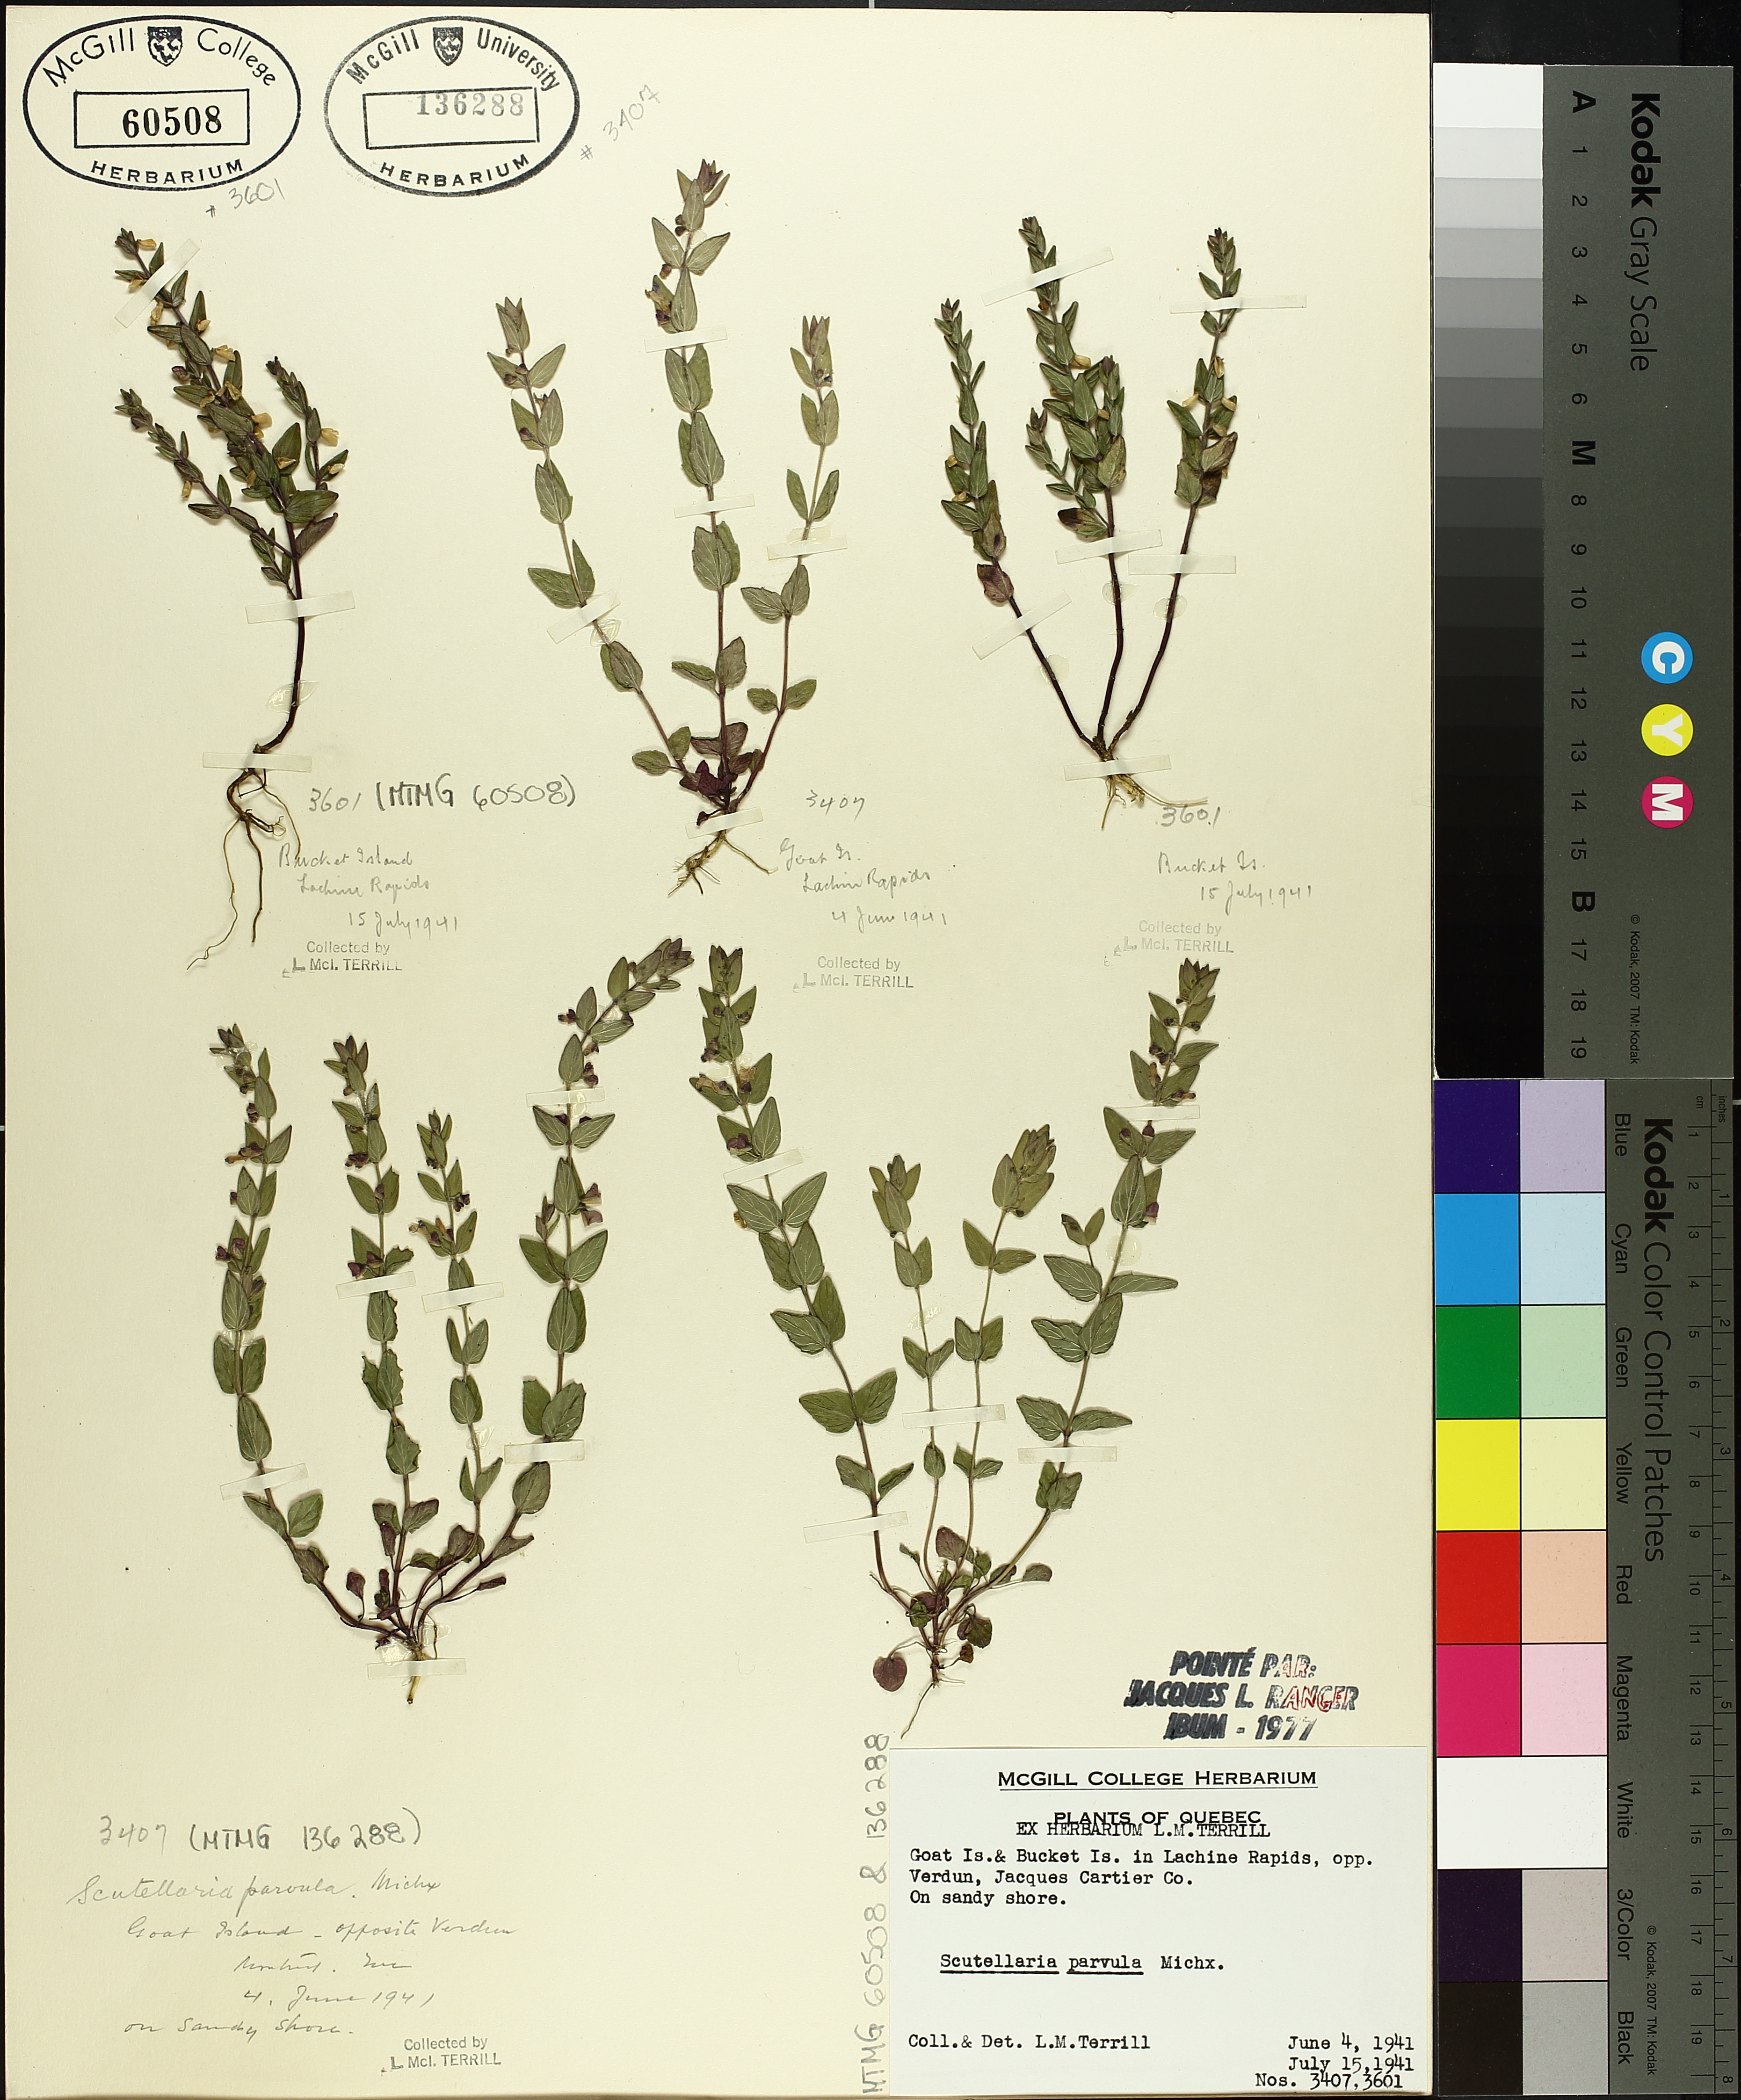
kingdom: Plantae
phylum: Tracheophyta
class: Magnoliopsida
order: Lamiales
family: Lamiaceae
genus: Scutellaria
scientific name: Scutellaria parvula
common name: Little scullcap
